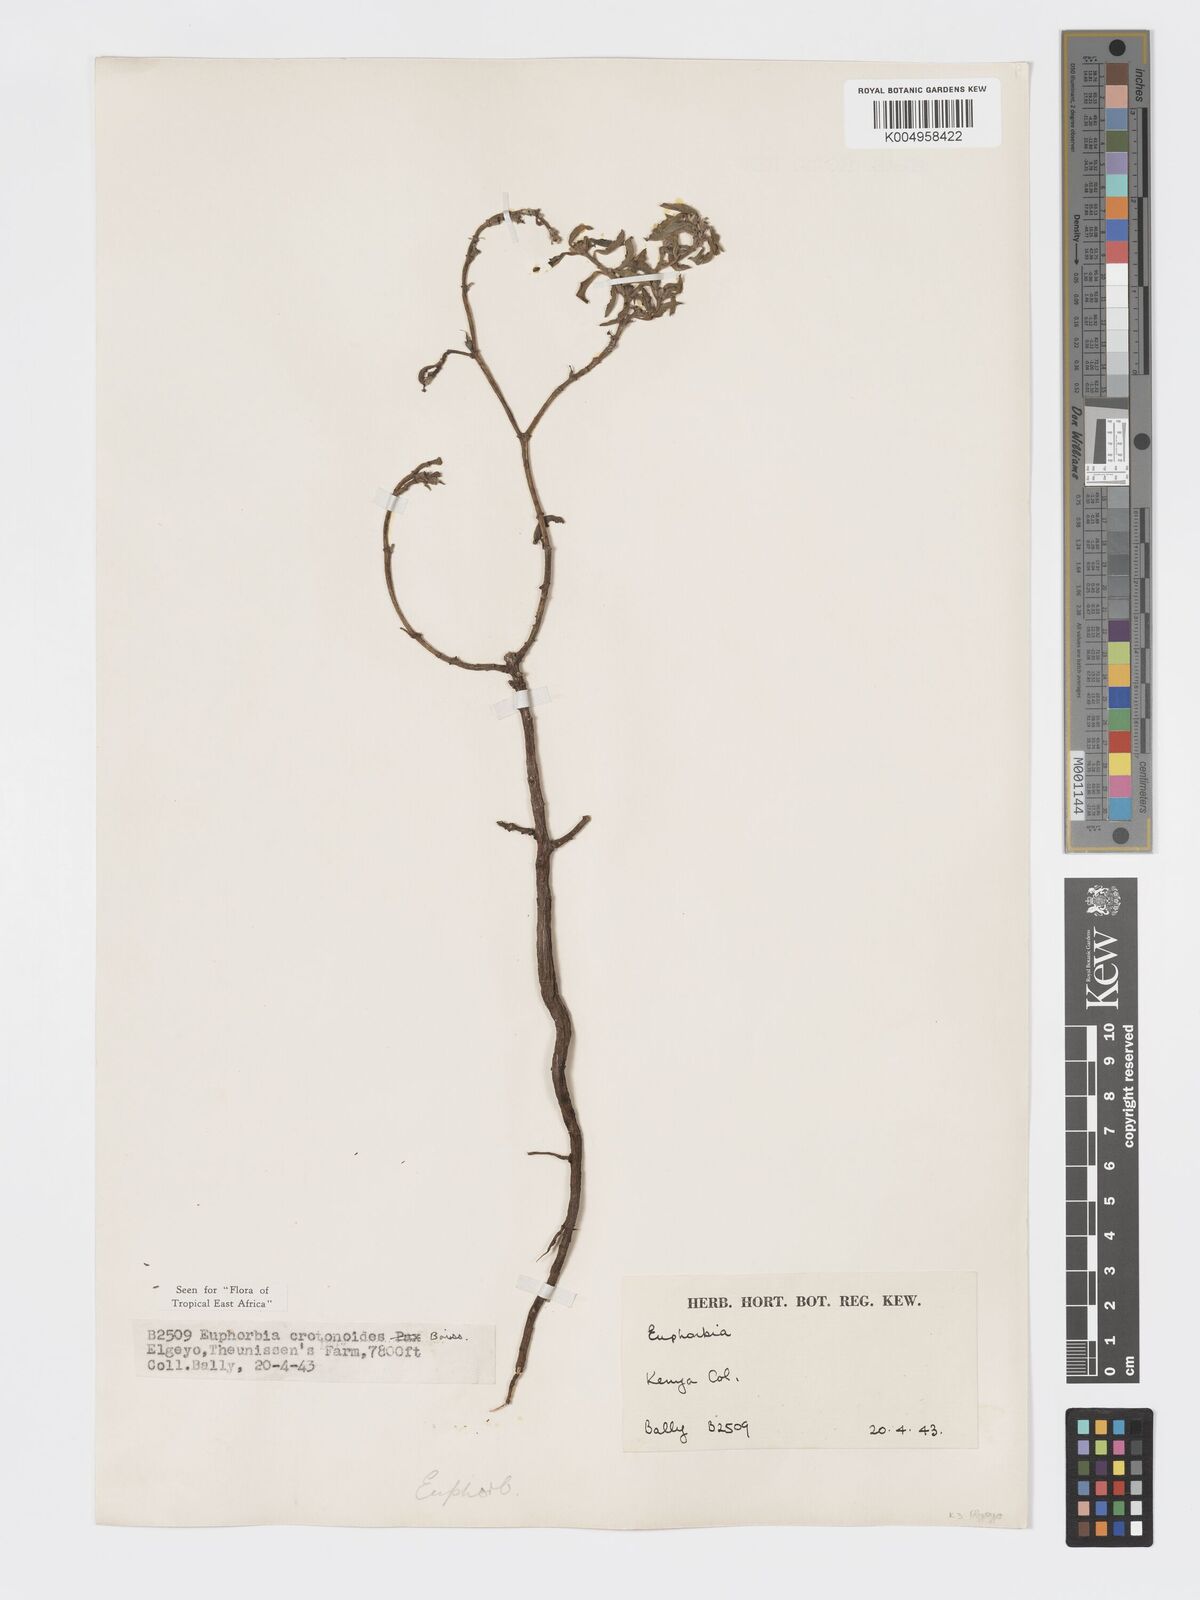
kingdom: Plantae
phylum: Tracheophyta
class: Magnoliopsida
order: Malpighiales
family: Euphorbiaceae
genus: Euphorbia
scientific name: Euphorbia crotonoides
